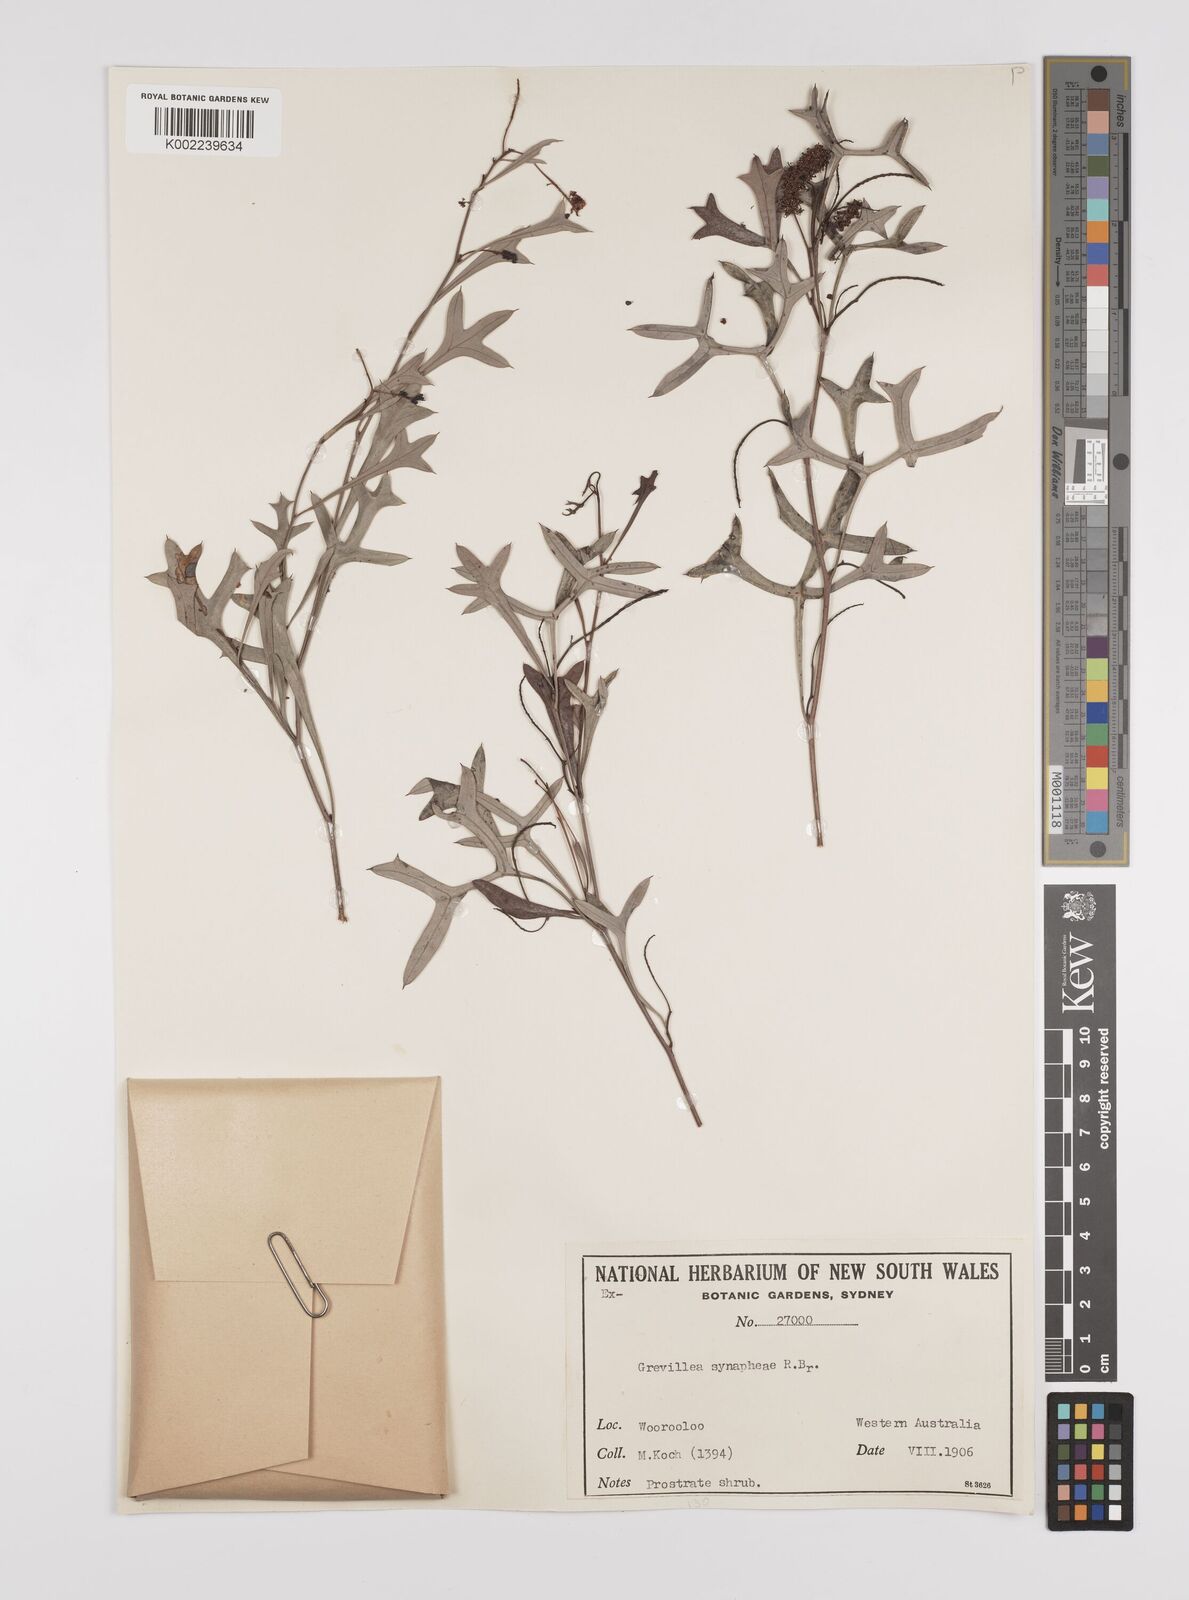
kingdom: Plantae
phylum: Tracheophyta
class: Magnoliopsida
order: Proteales
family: Proteaceae
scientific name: Proteaceae
